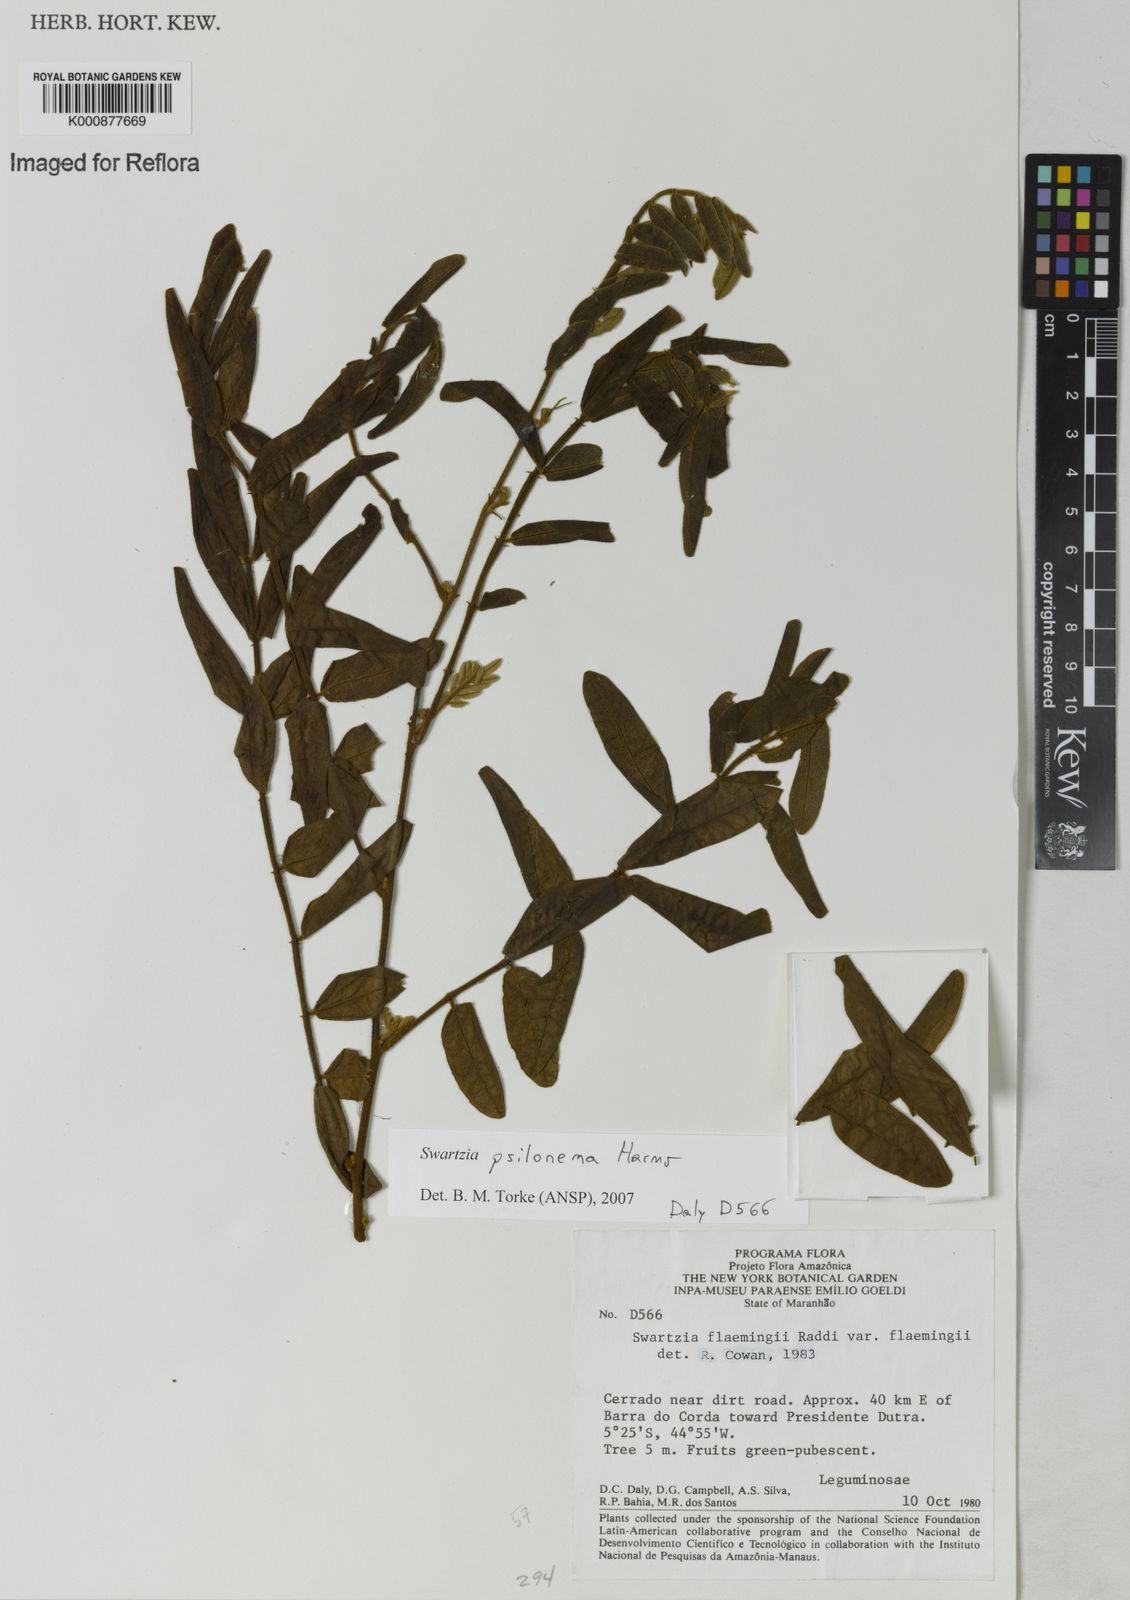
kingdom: Plantae
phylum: Tracheophyta
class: Magnoliopsida
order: Fabales
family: Fabaceae
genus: Swartzia
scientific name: Swartzia psilonema
